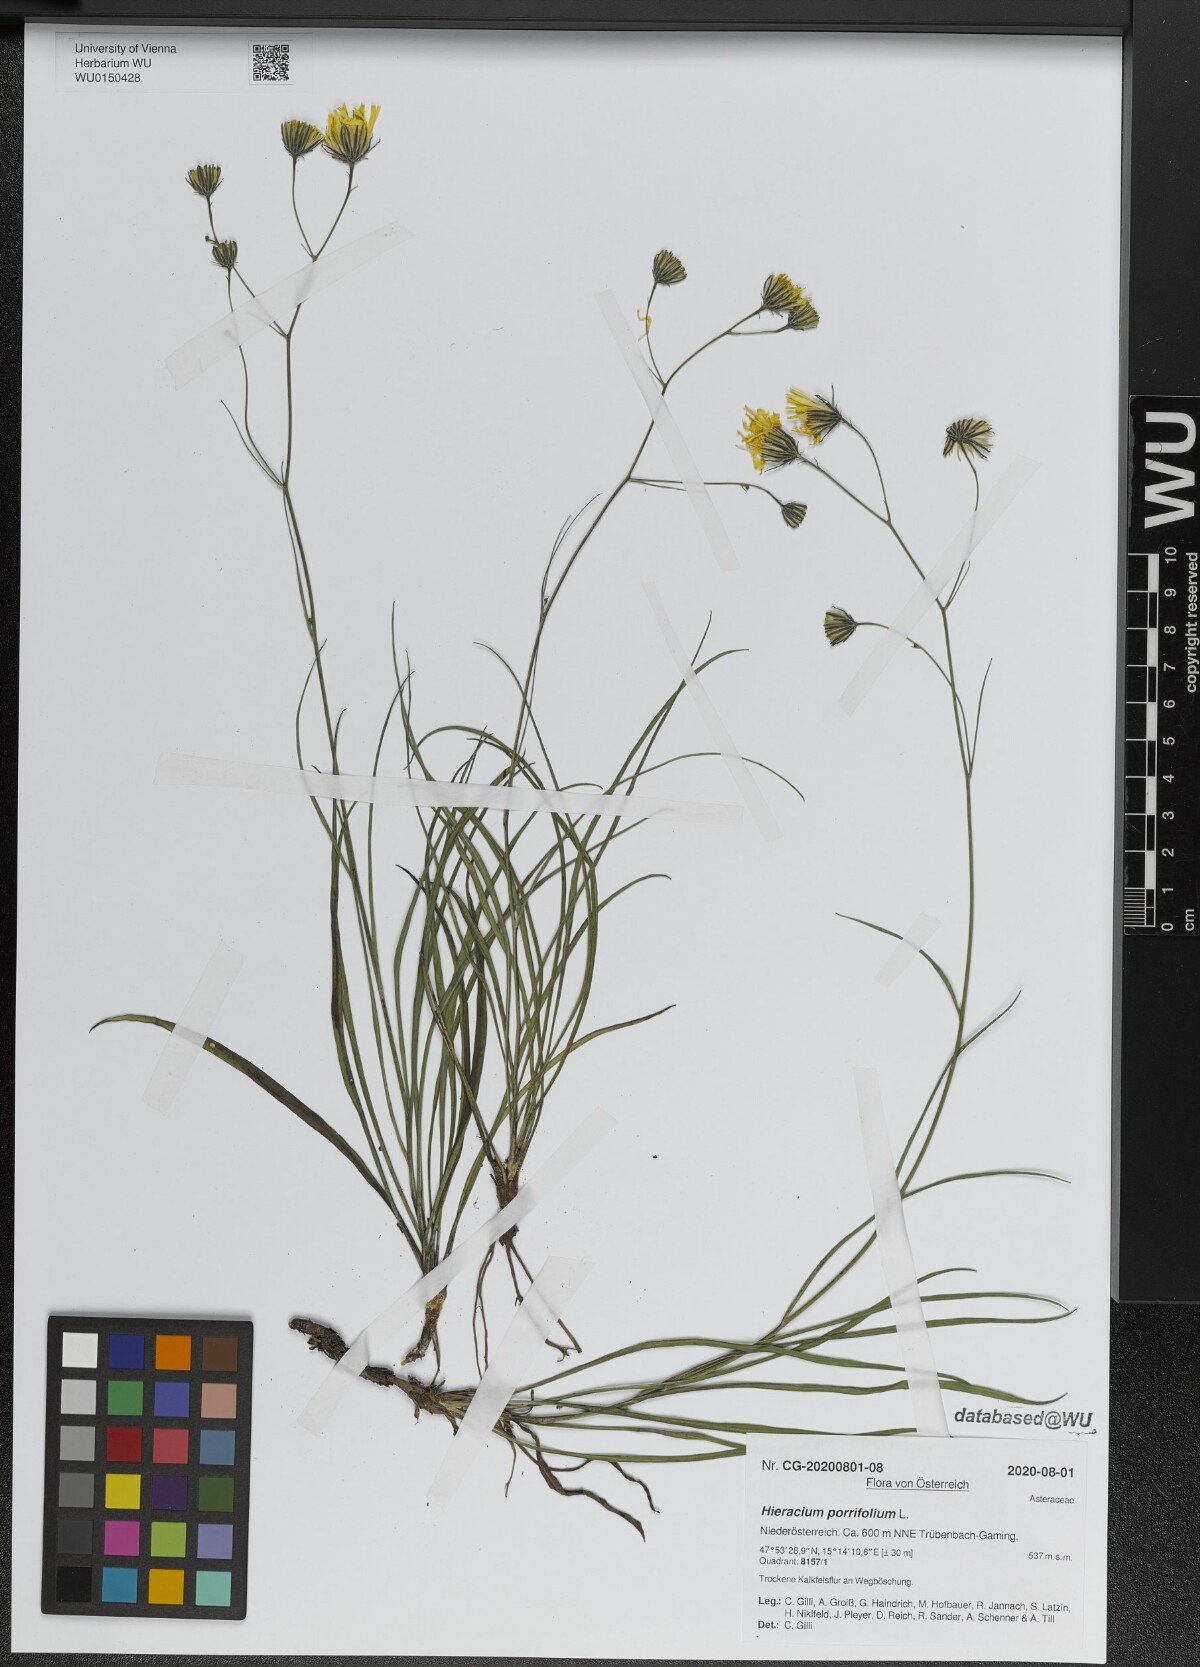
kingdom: Plantae
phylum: Tracheophyta
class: Magnoliopsida
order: Asterales
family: Asteraceae
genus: Hieracium
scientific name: Hieracium porrifolium
